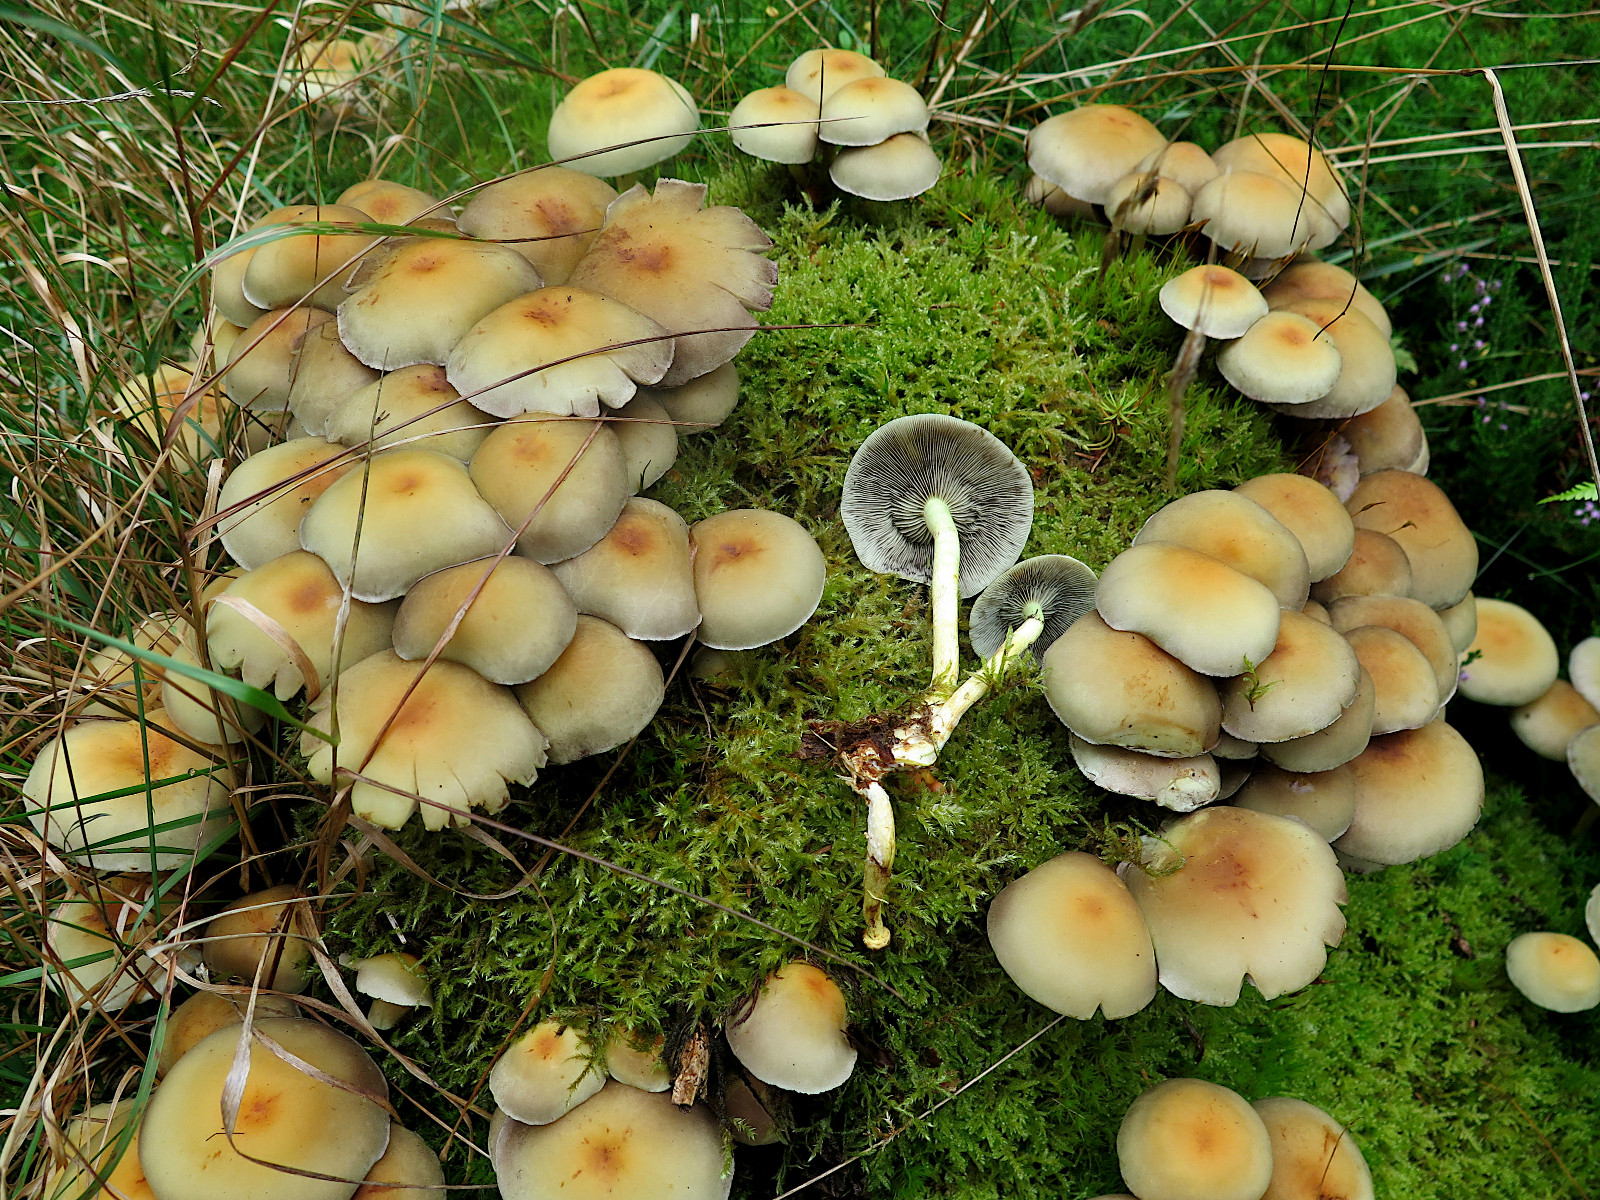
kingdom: Fungi
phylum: Basidiomycota
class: Agaricomycetes
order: Agaricales
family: Strophariaceae
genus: Hypholoma
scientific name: Hypholoma fasciculare
